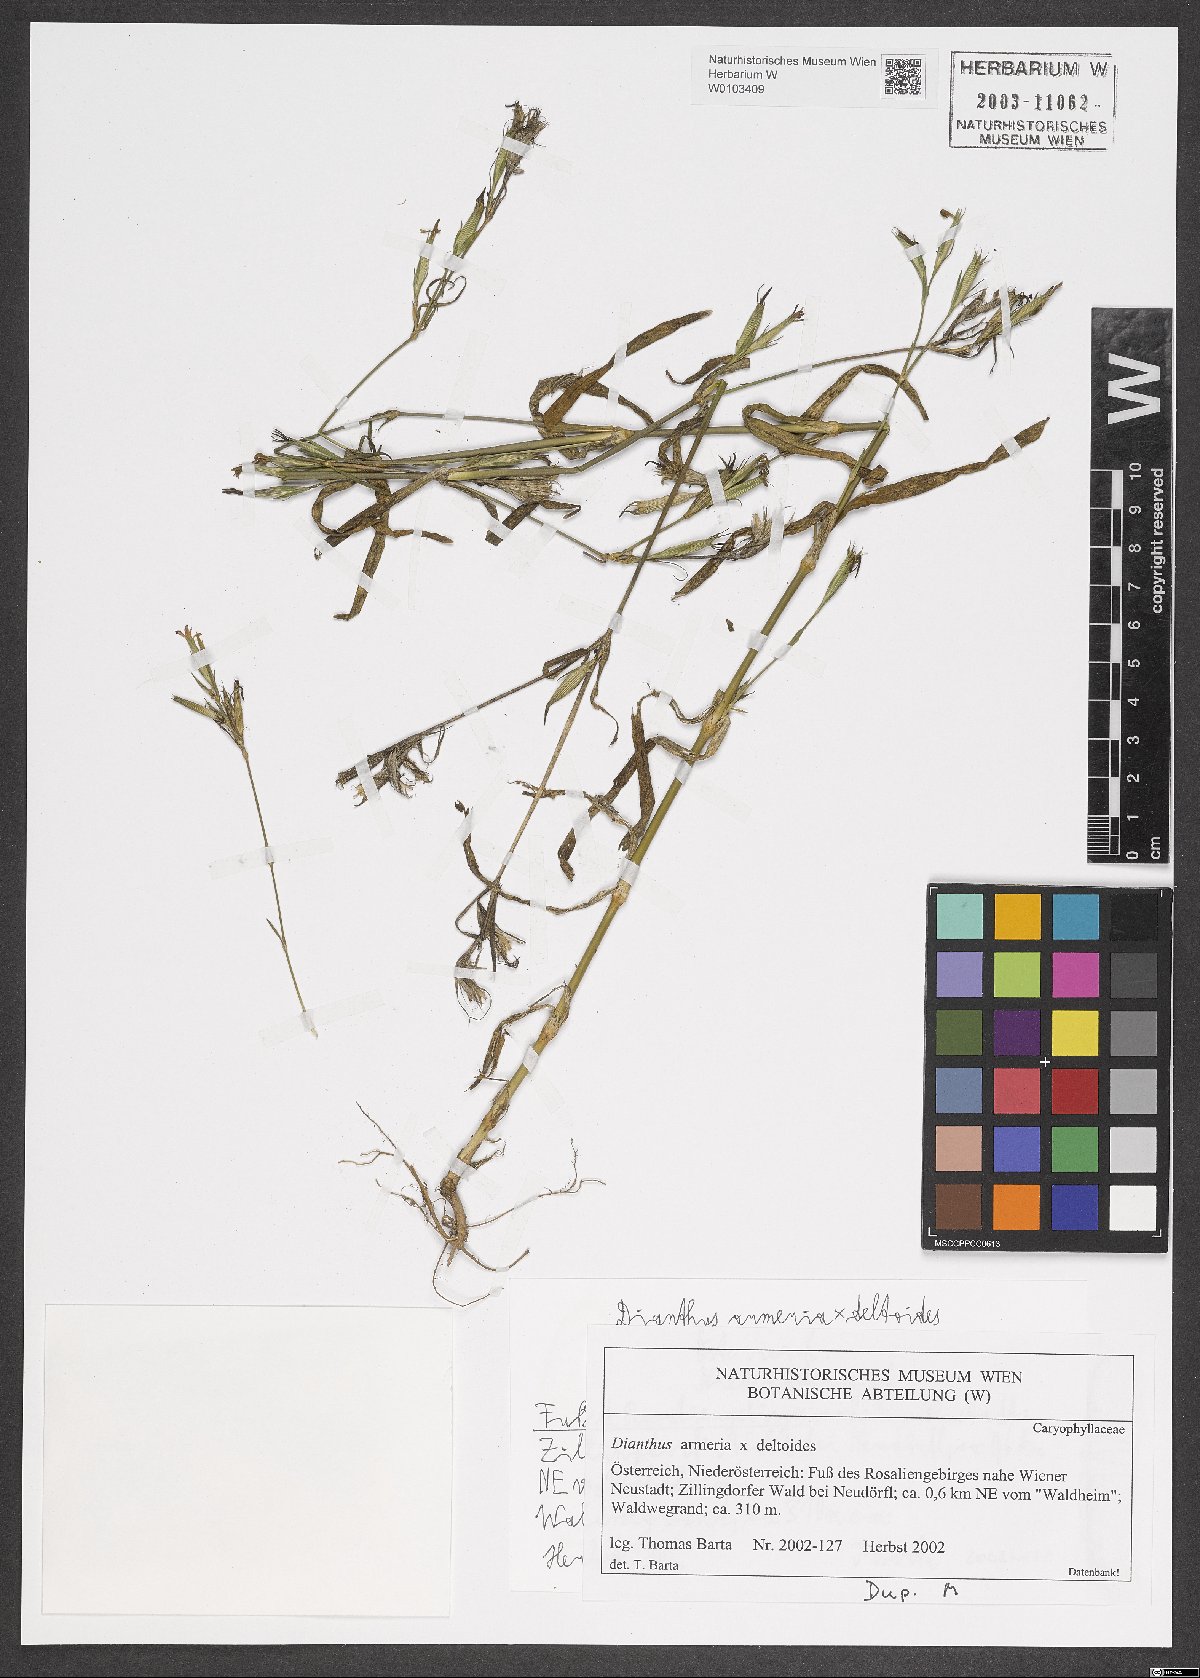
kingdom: Plantae
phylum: Tracheophyta
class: Magnoliopsida
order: Caryophyllales
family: Caryophyllaceae
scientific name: Caryophyllaceae
